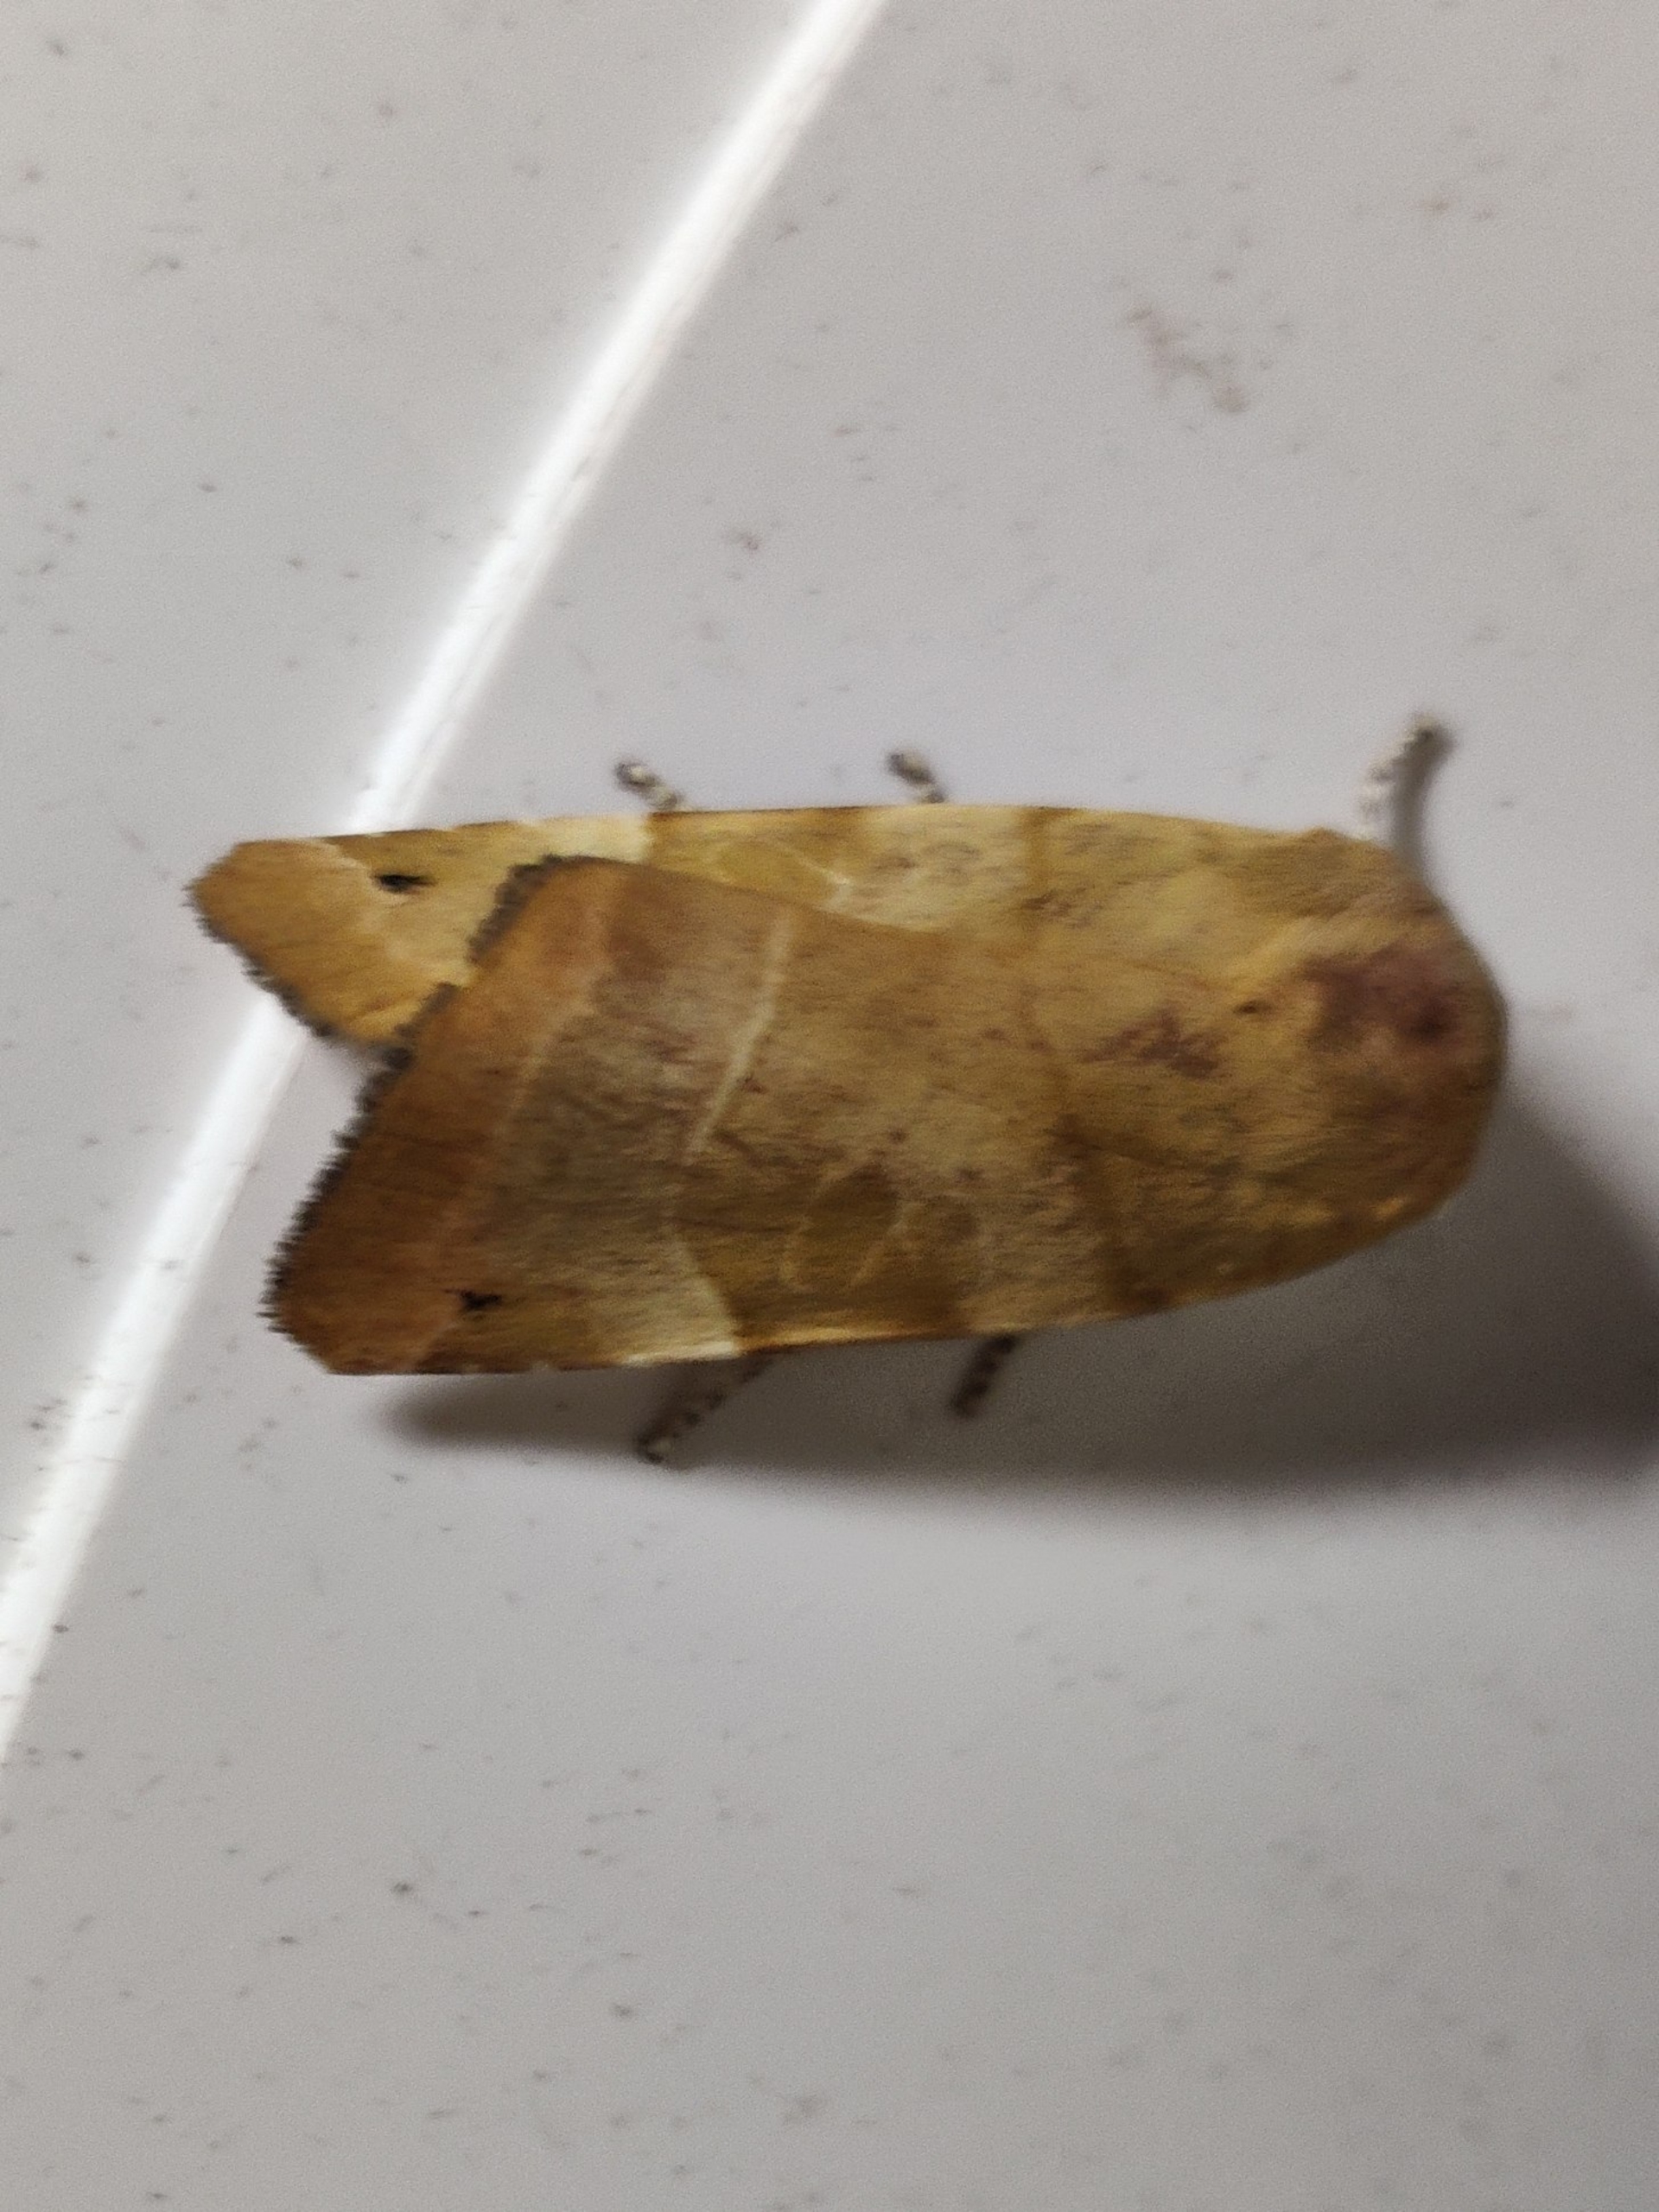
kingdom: Animalia
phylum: Arthropoda
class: Insecta
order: Lepidoptera
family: Noctuidae
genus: Noctua
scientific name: Noctua fimbriata
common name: Gul båndugle
